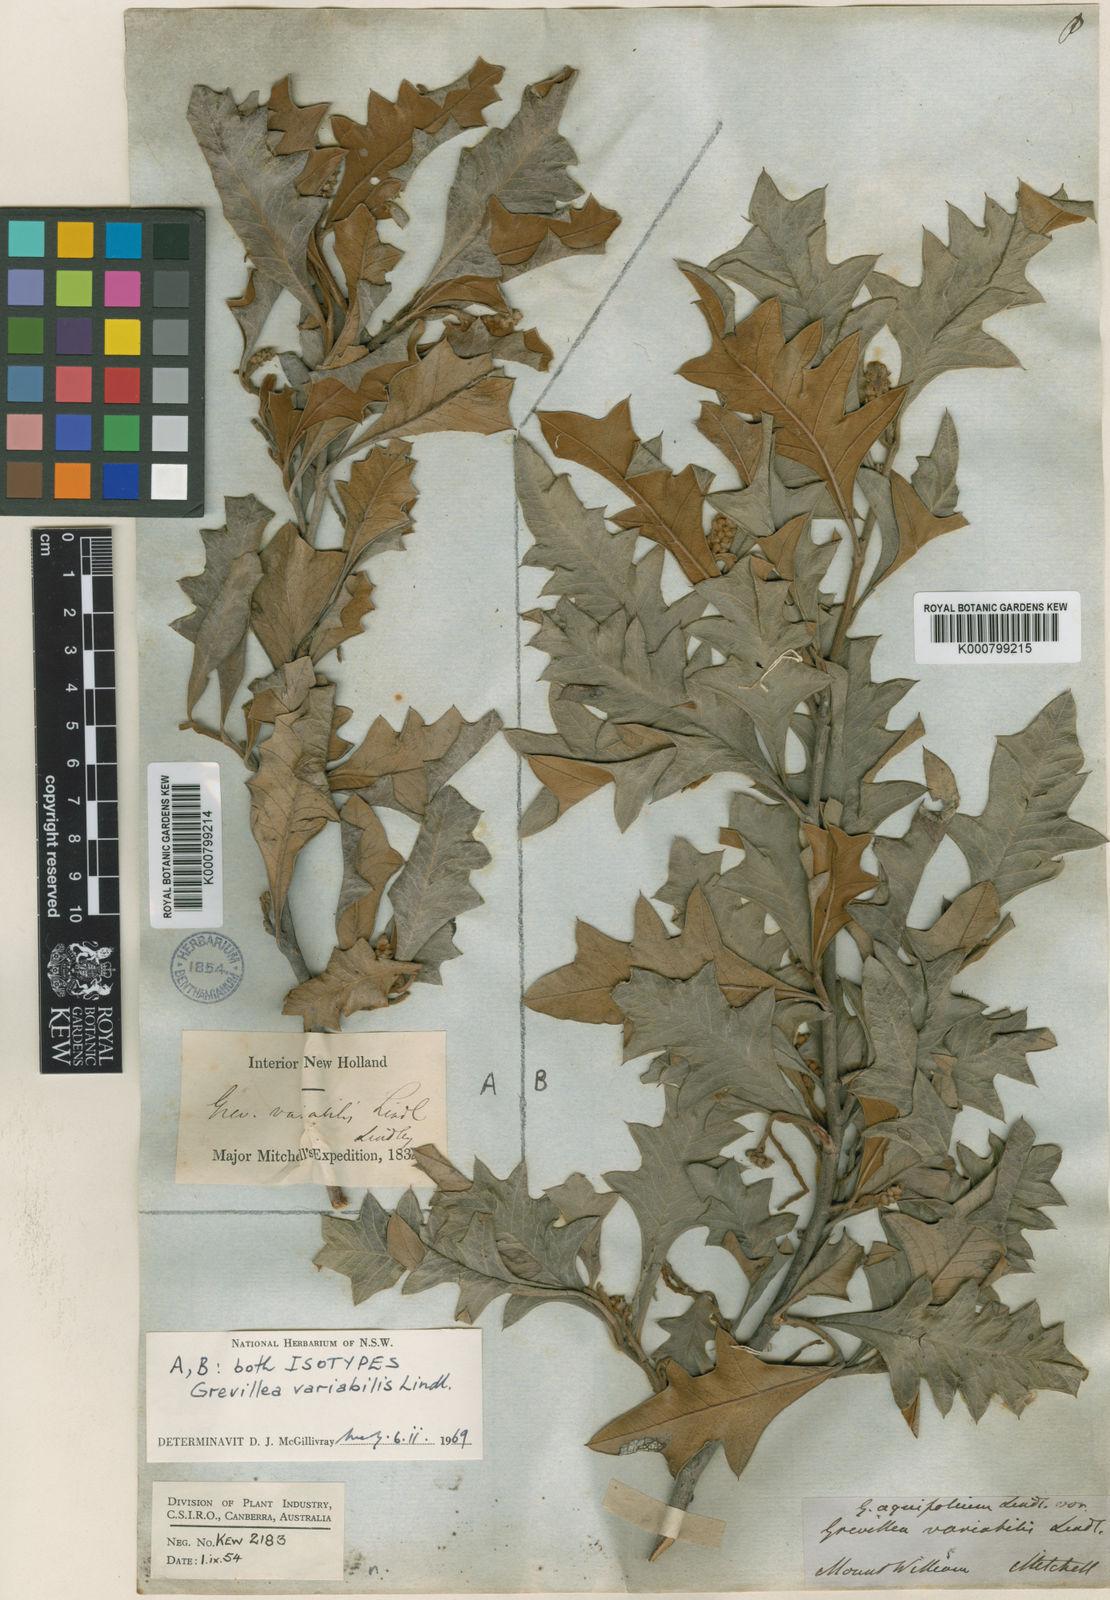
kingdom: Plantae
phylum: Tracheophyta
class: Magnoliopsida
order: Proteales
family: Proteaceae
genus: Grevillea
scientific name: Grevillea aquifolium
